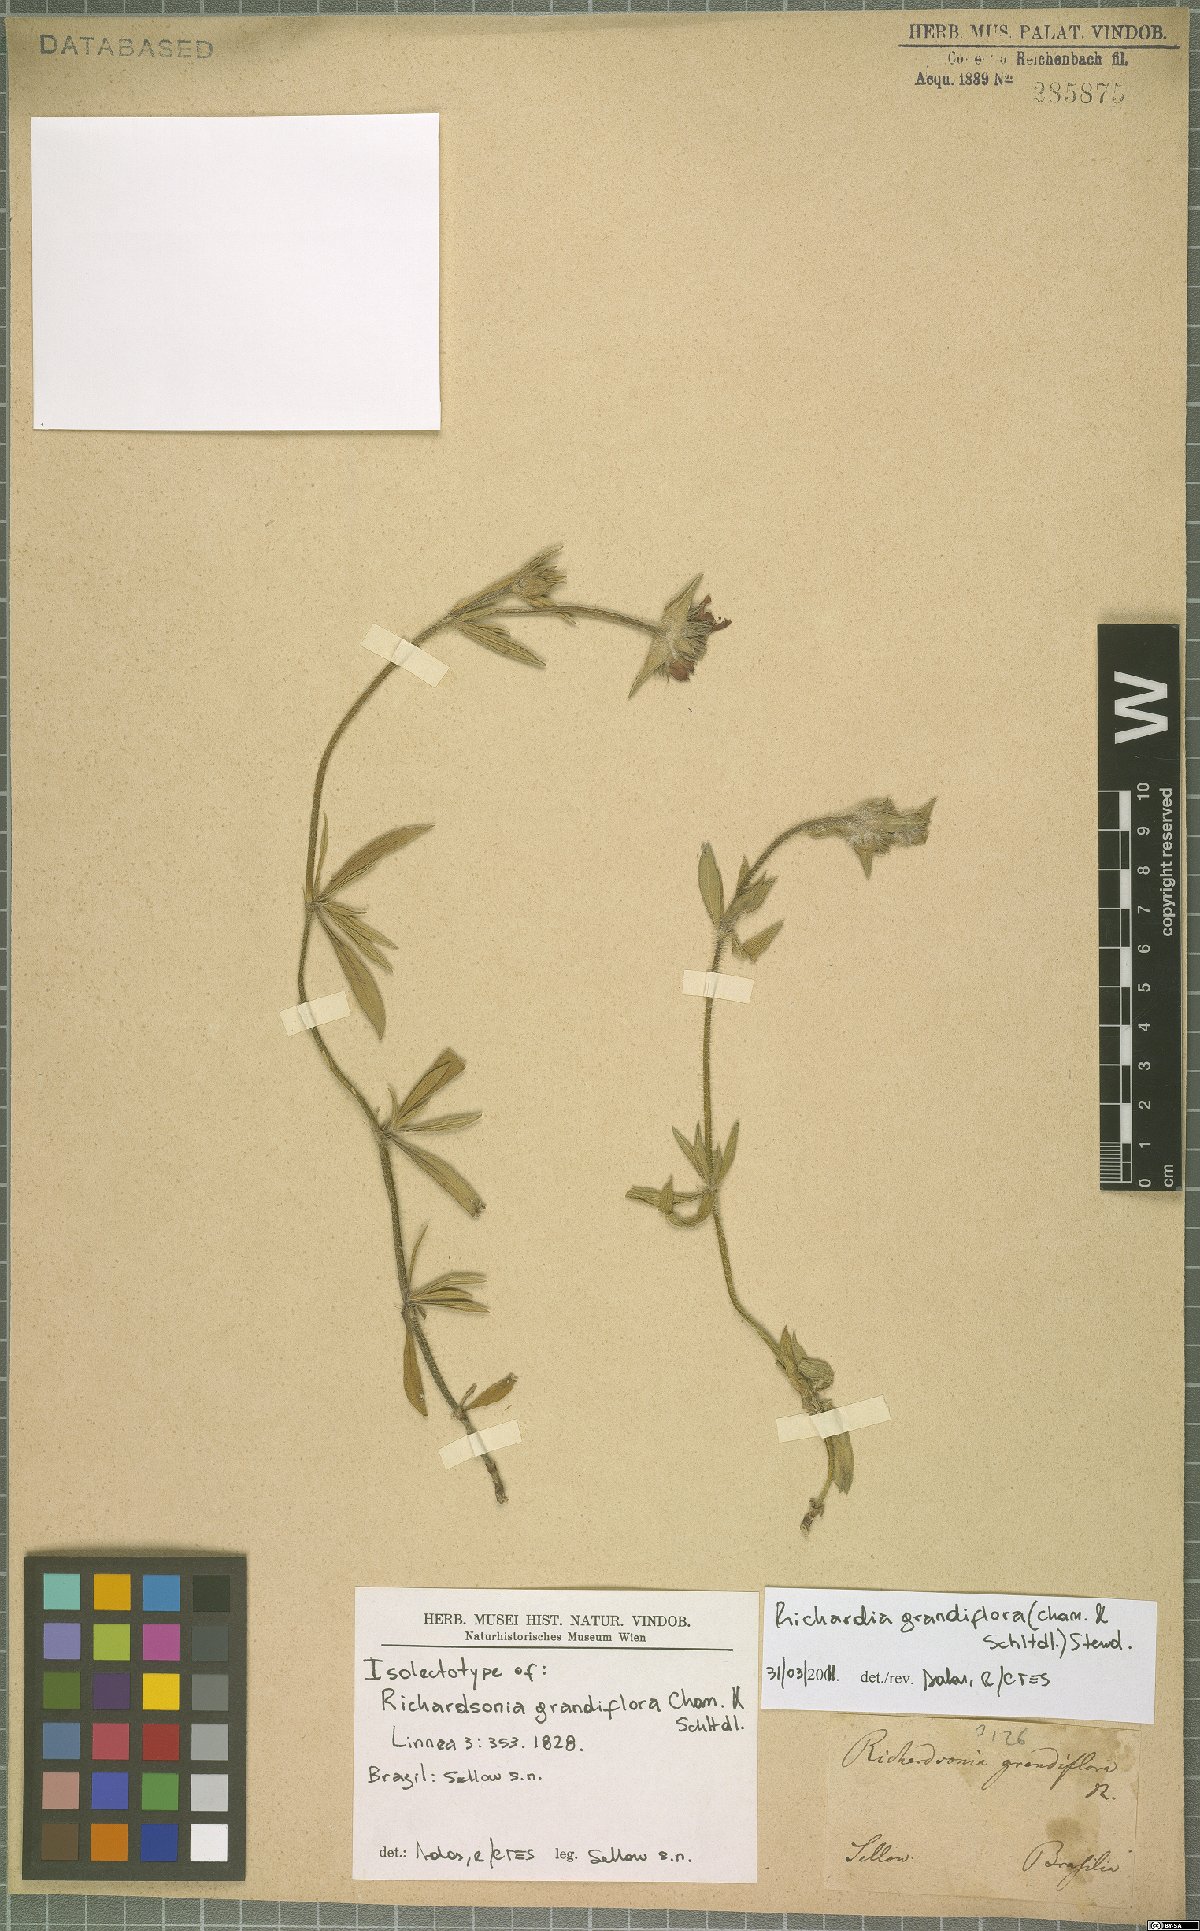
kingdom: Plantae
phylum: Tracheophyta
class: Magnoliopsida
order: Gentianales
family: Rubiaceae
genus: Richardia
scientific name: Richardia grandiflora
